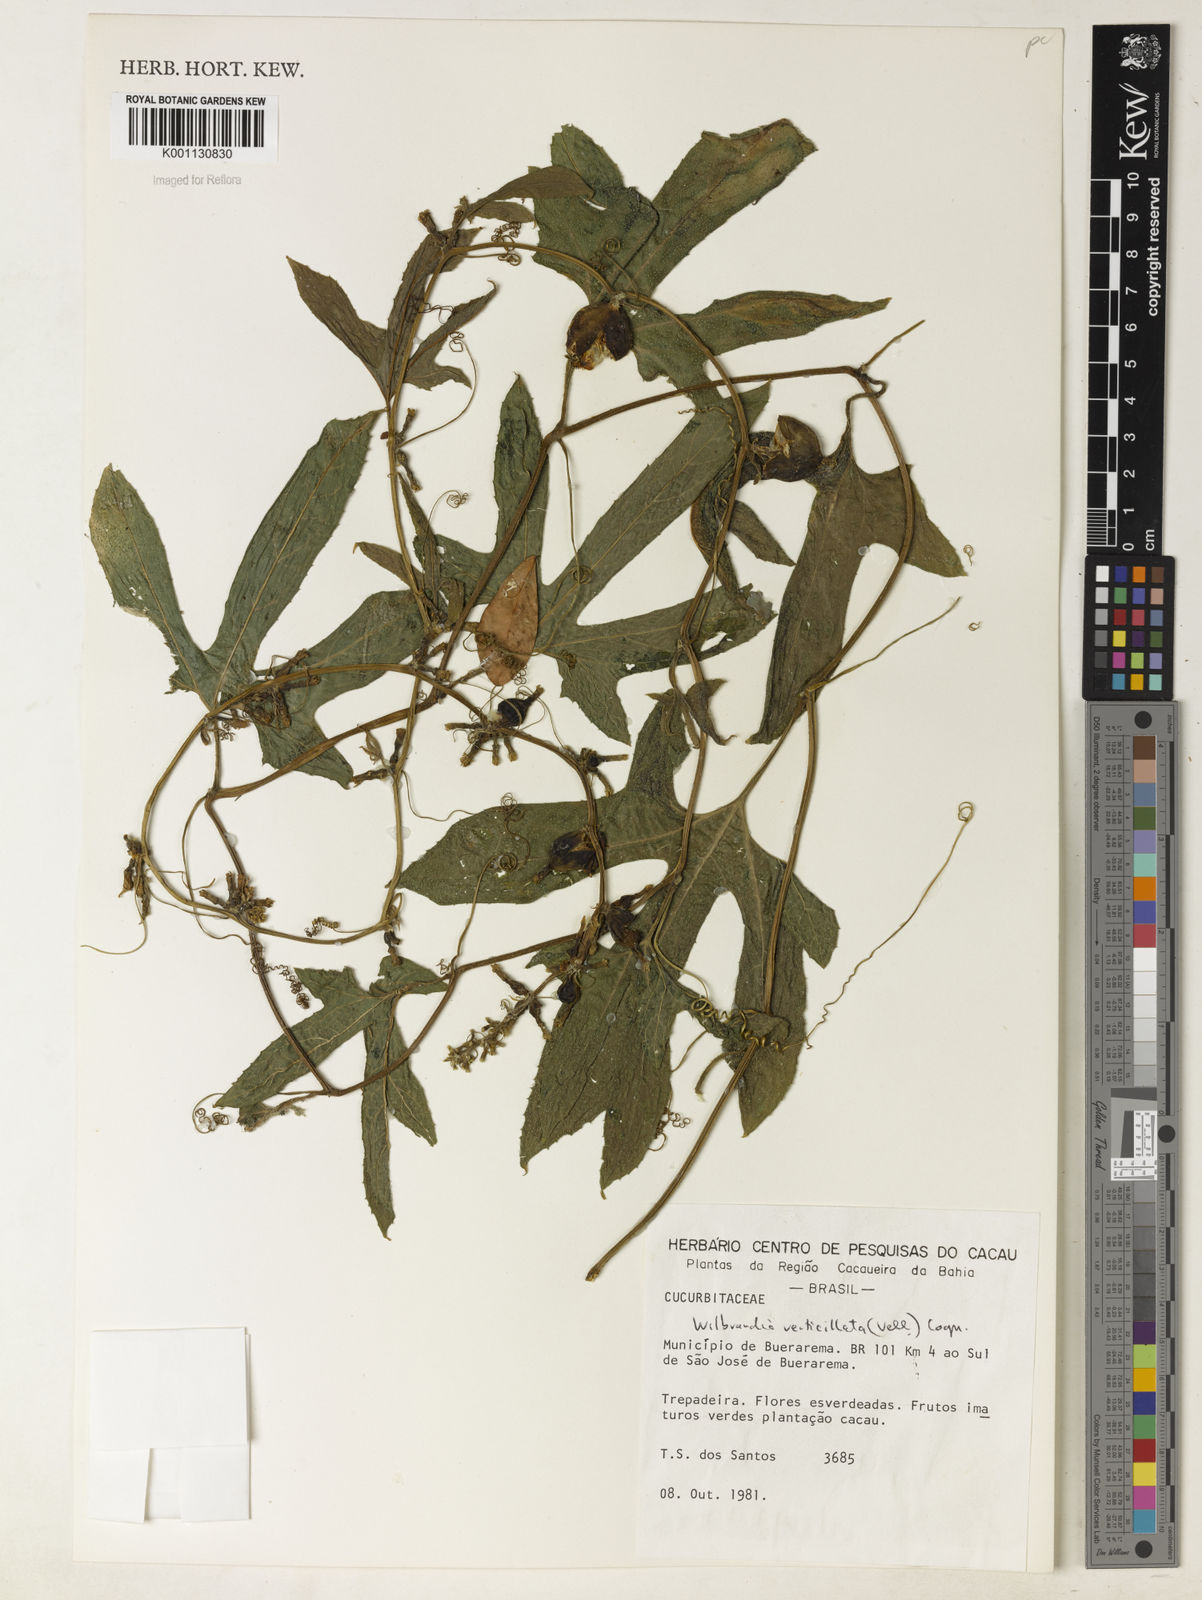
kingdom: Plantae
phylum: Tracheophyta
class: Magnoliopsida
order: Cucurbitales
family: Cucurbitaceae
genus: Wilbrandia
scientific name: Wilbrandia verticillata
